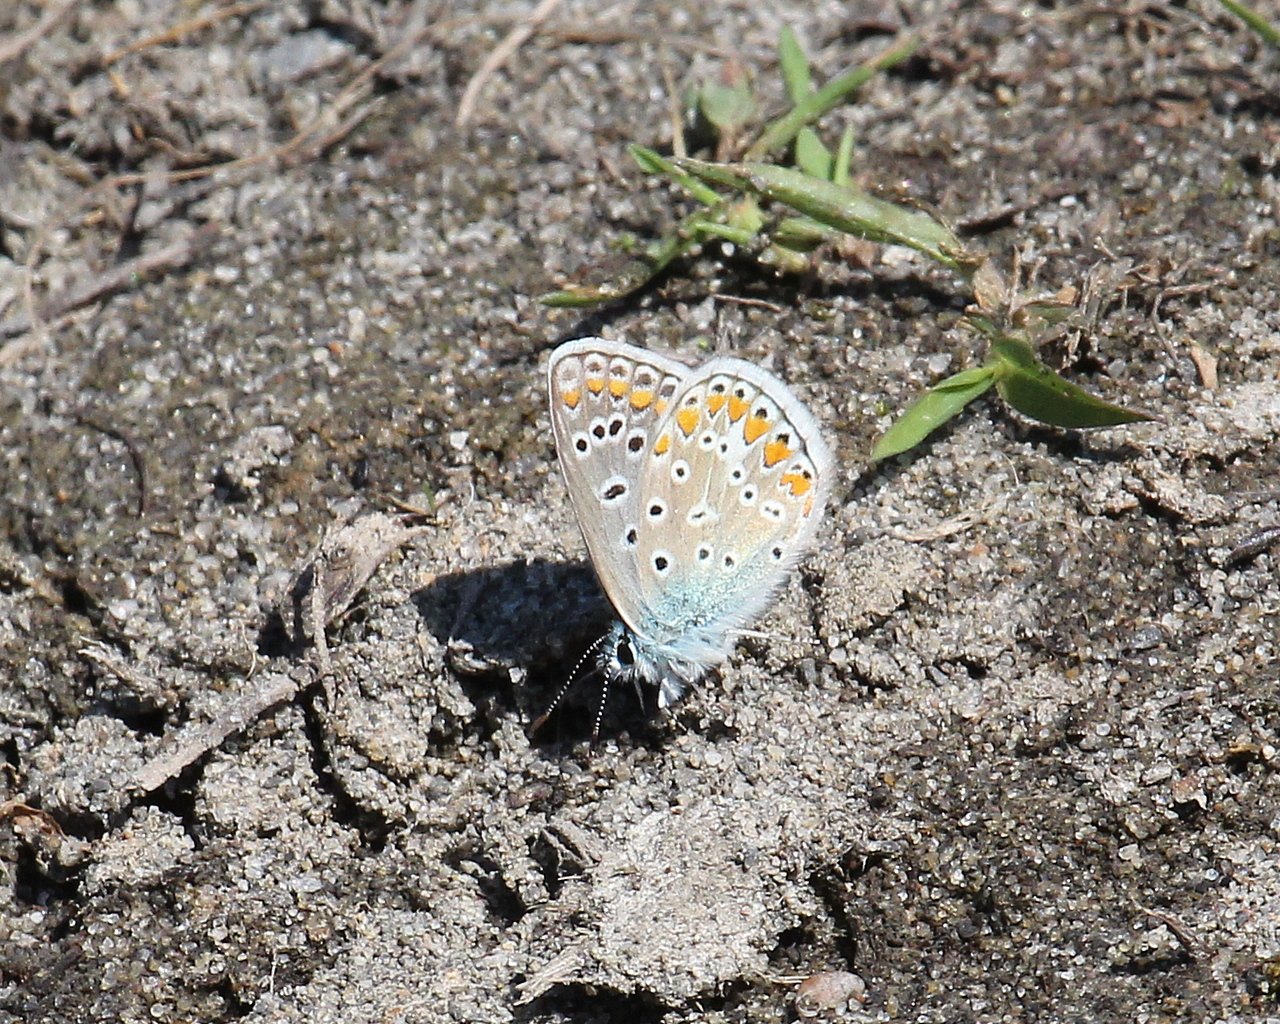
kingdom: Animalia
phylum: Arthropoda
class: Insecta
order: Lepidoptera
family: Lycaenidae
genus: Polyommatus
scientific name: Polyommatus icarus
